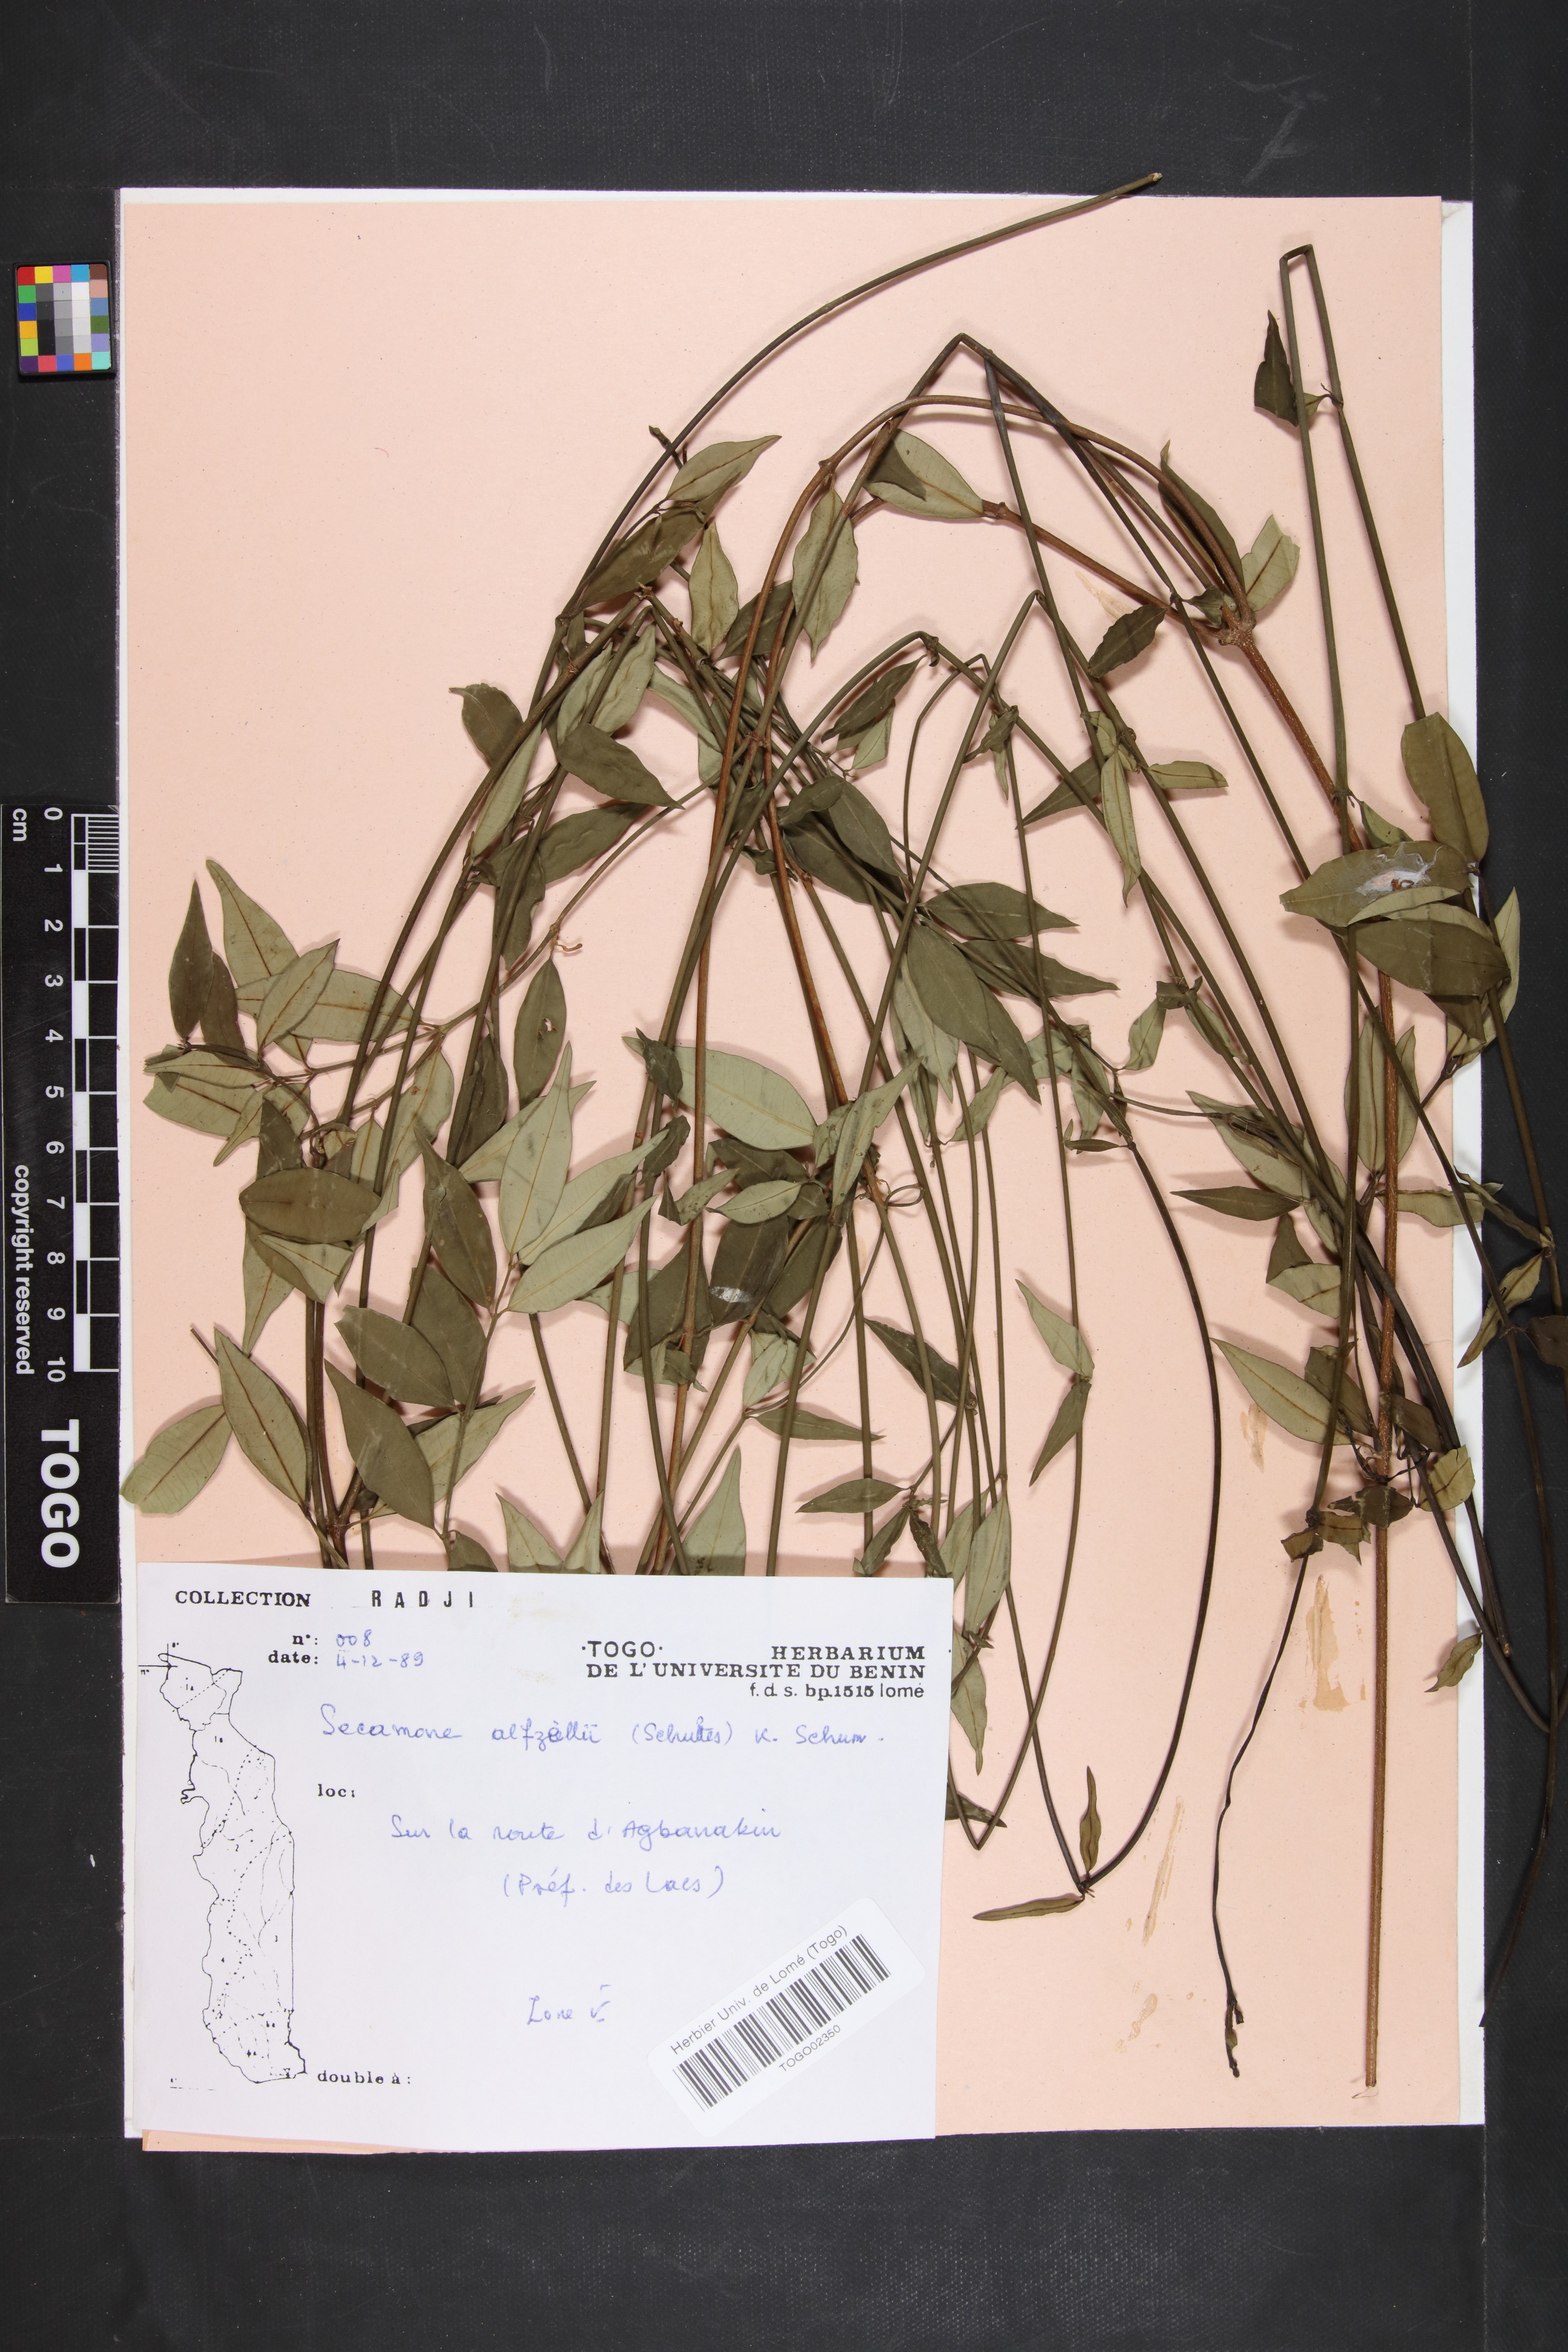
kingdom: Plantae
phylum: Tracheophyta
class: Magnoliopsida
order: Gentianales
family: Apocynaceae
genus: Secamone
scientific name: Secamone afzelii
